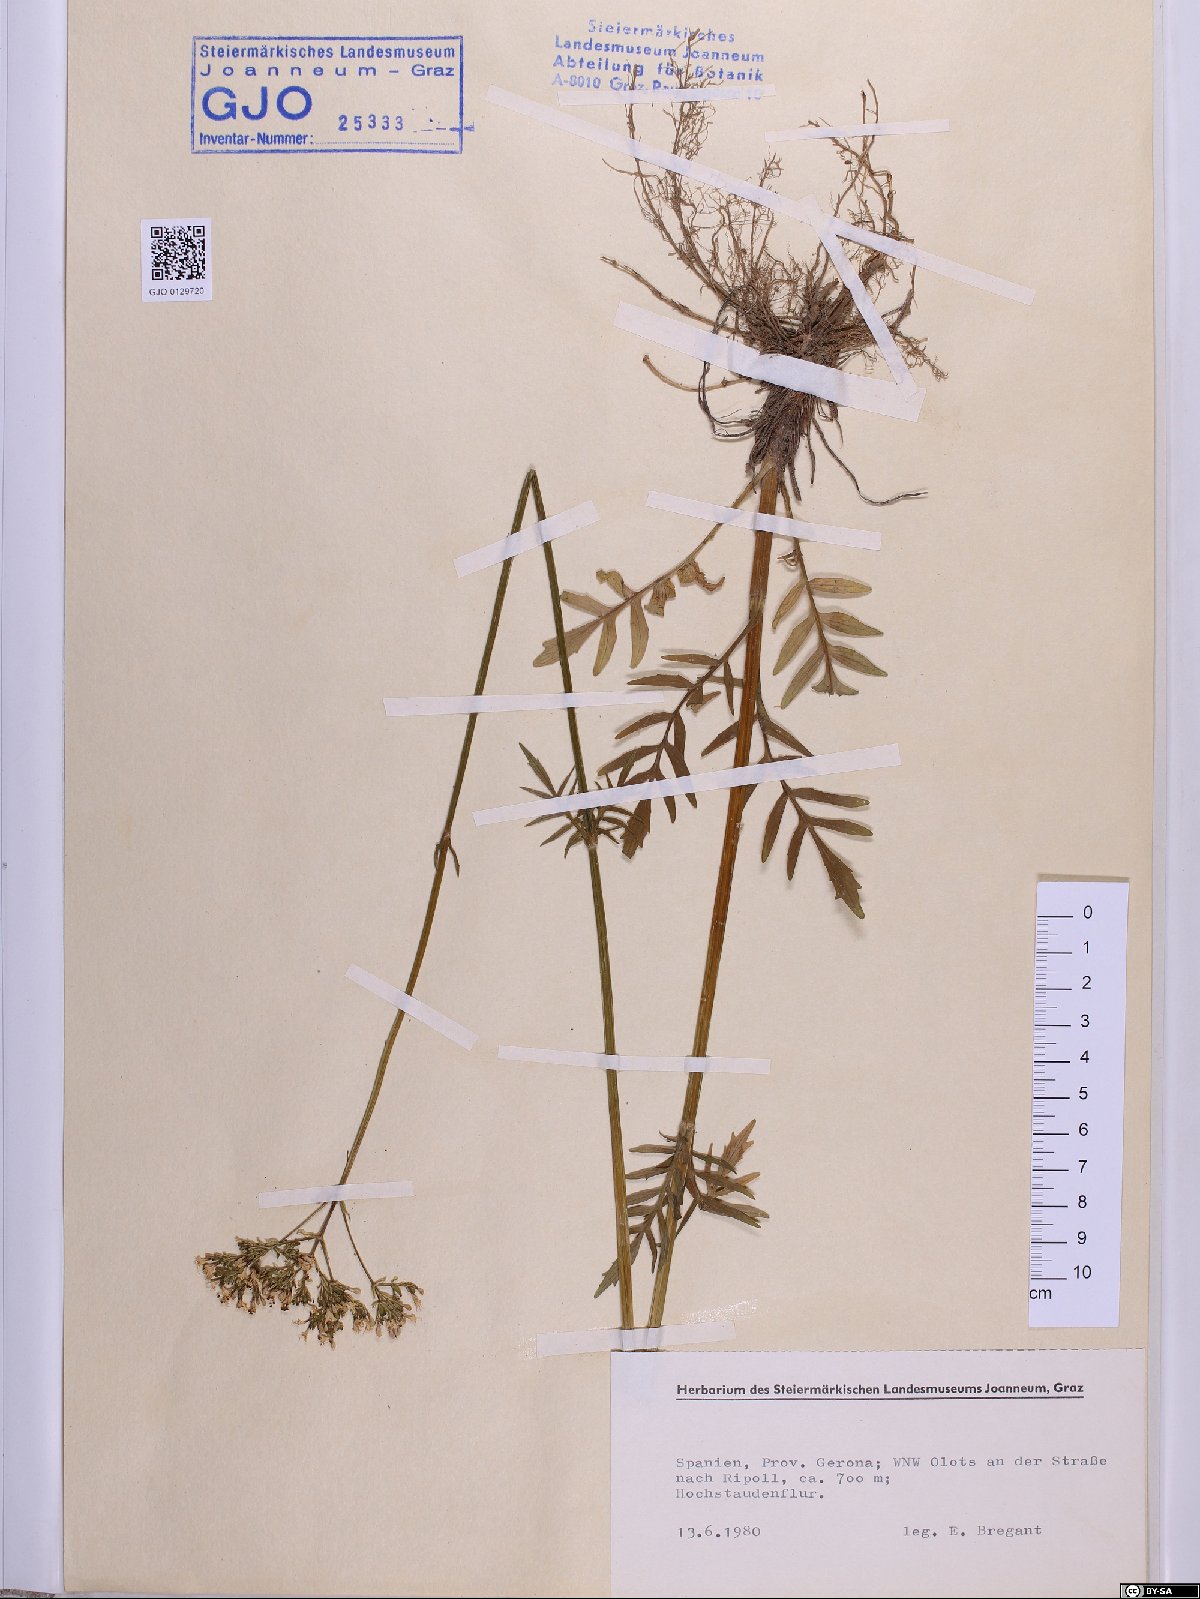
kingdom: Plantae
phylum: Tracheophyta
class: Magnoliopsida
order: Dipsacales
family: Caprifoliaceae
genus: Valeriana
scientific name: Valeriana officinalis
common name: Common valerian
